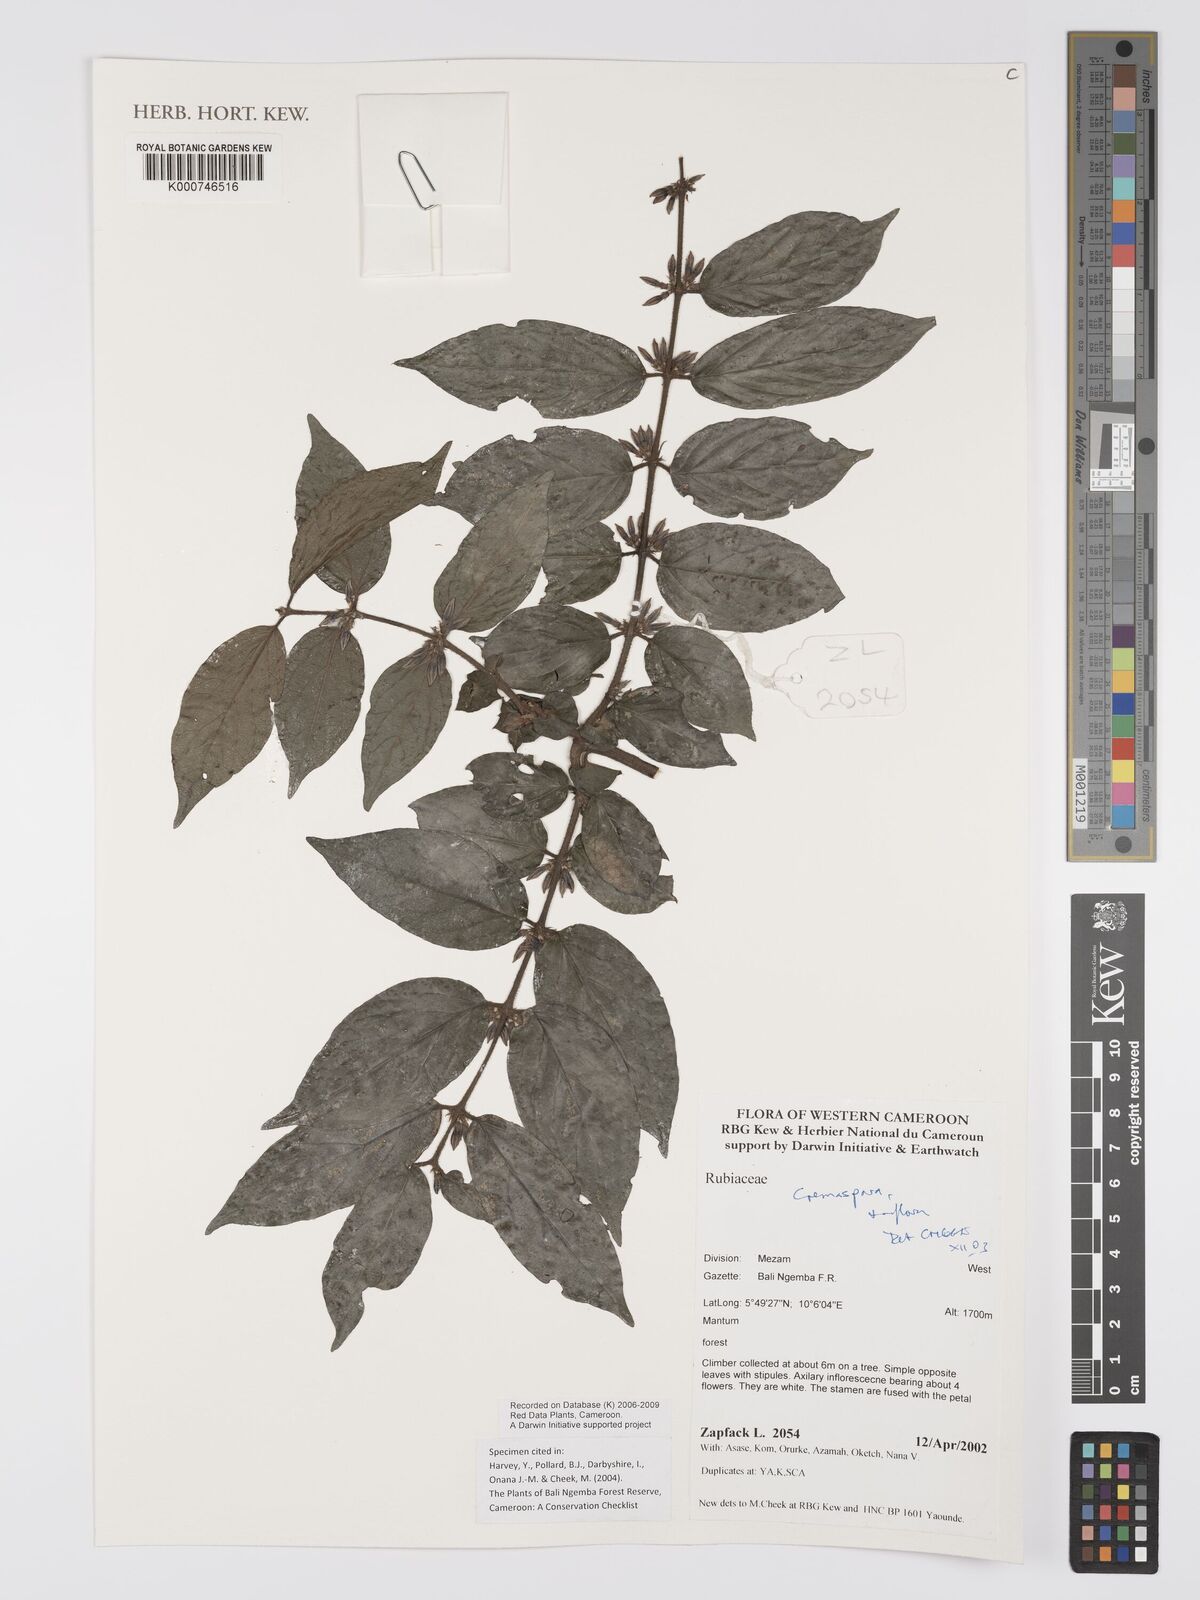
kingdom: Plantae
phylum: Tracheophyta
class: Magnoliopsida
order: Gentianales
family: Rubiaceae
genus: Cremaspora
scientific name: Cremaspora triflora
